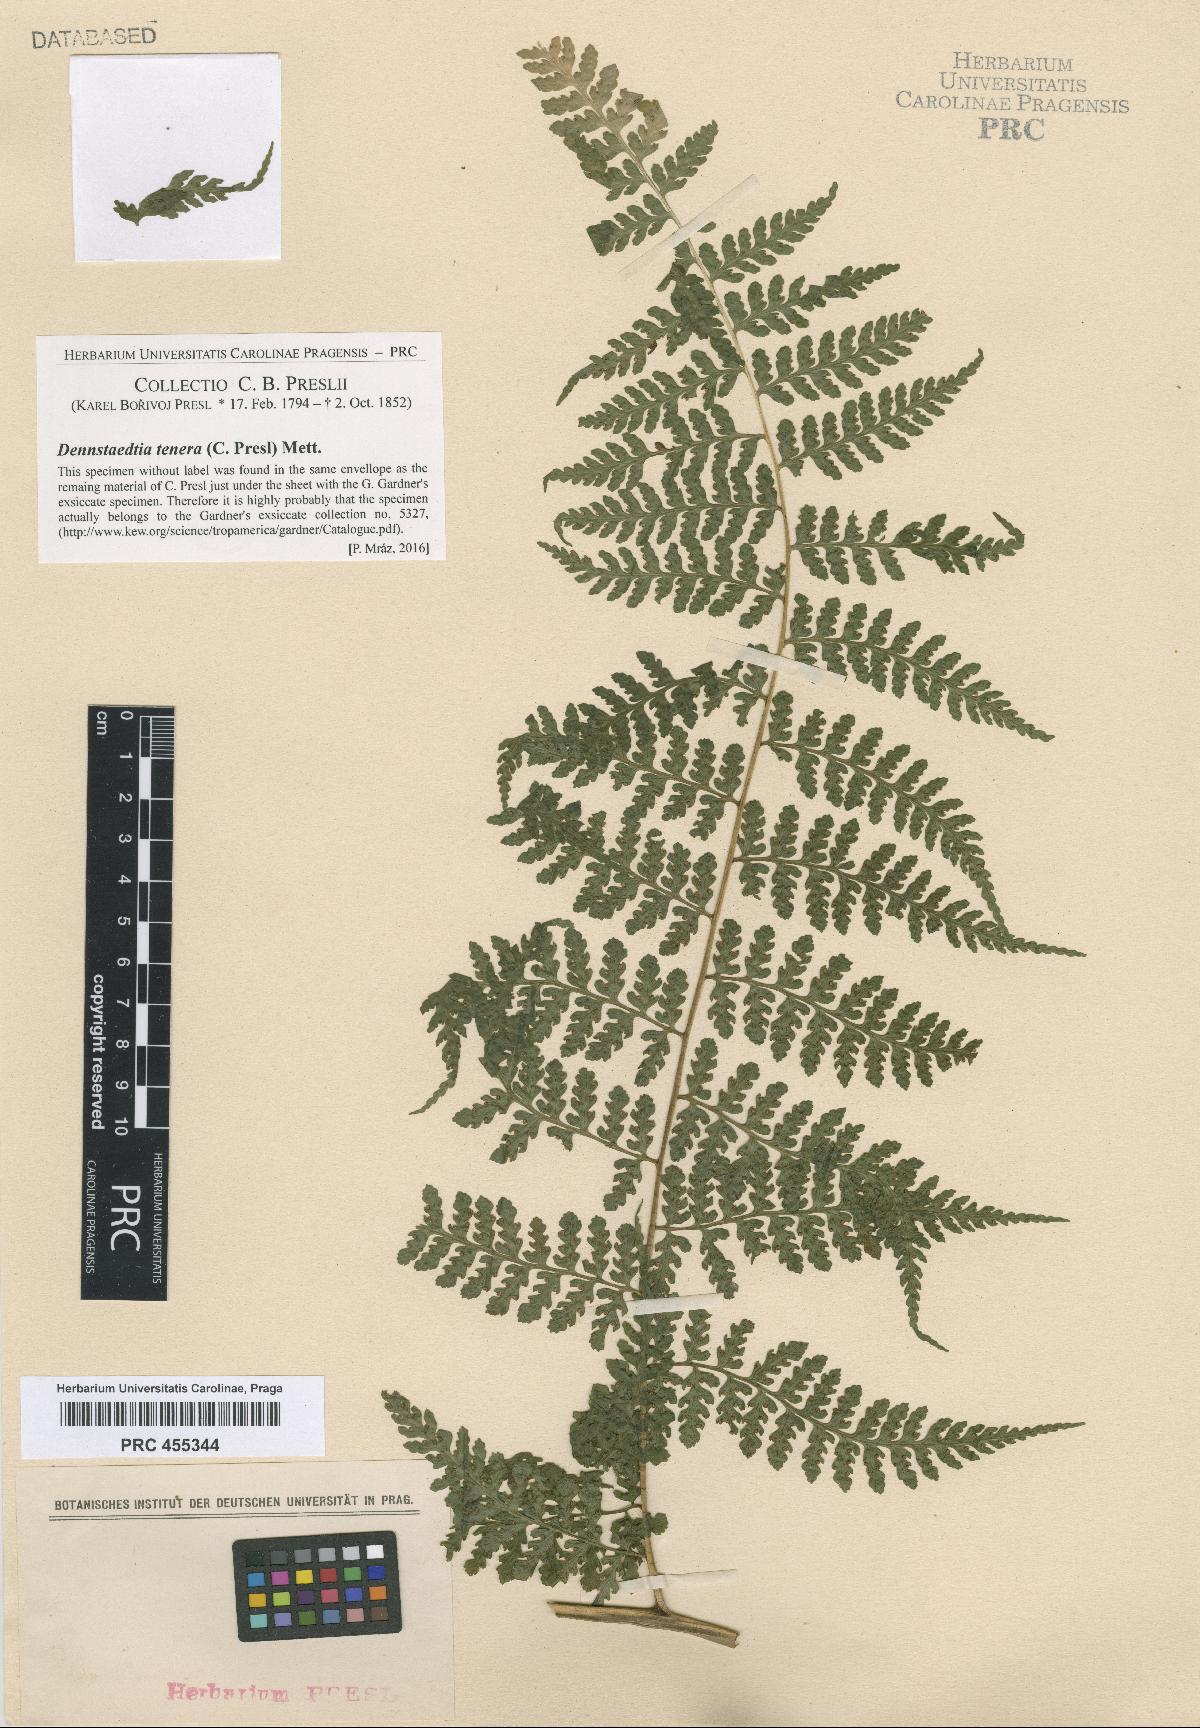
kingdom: Plantae
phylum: Tracheophyta
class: Polypodiopsida
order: Polypodiales
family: Dennstaedtiaceae
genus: Mucura
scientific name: Mucura globulifera
